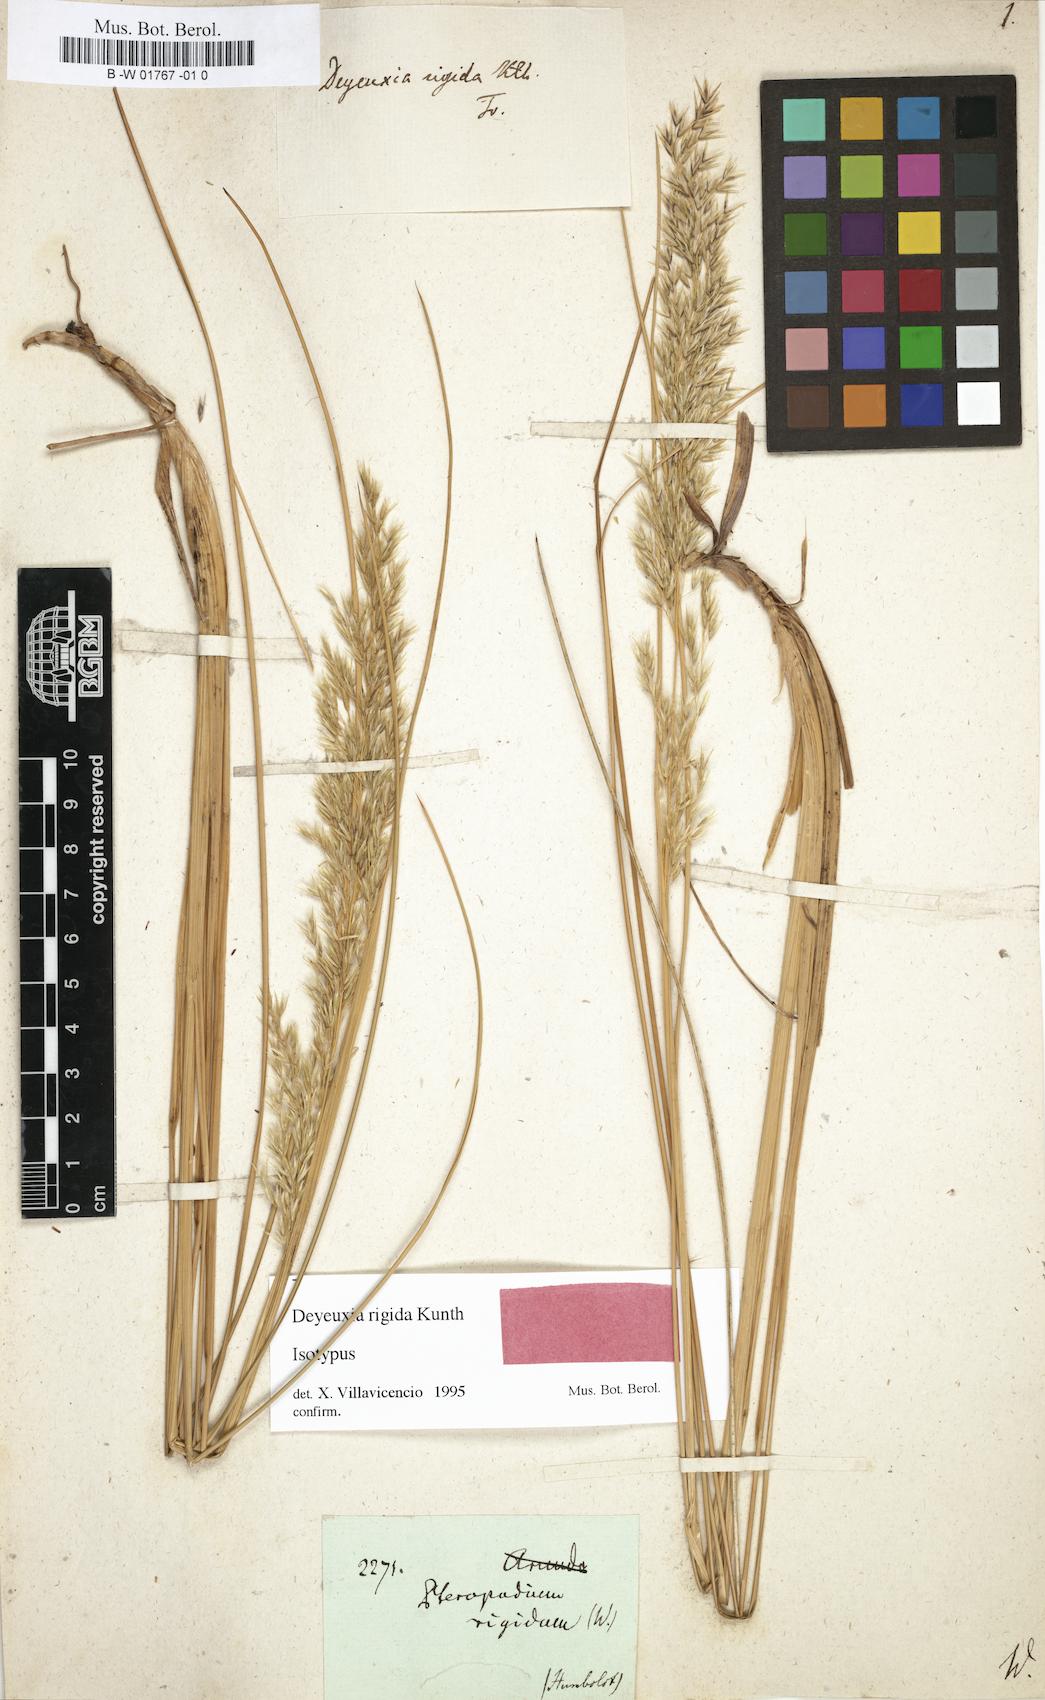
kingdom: Plantae
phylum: Tracheophyta
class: Liliopsida
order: Poales
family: Poaceae
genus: Cinnagrostis
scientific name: Cinnagrostis rigida
